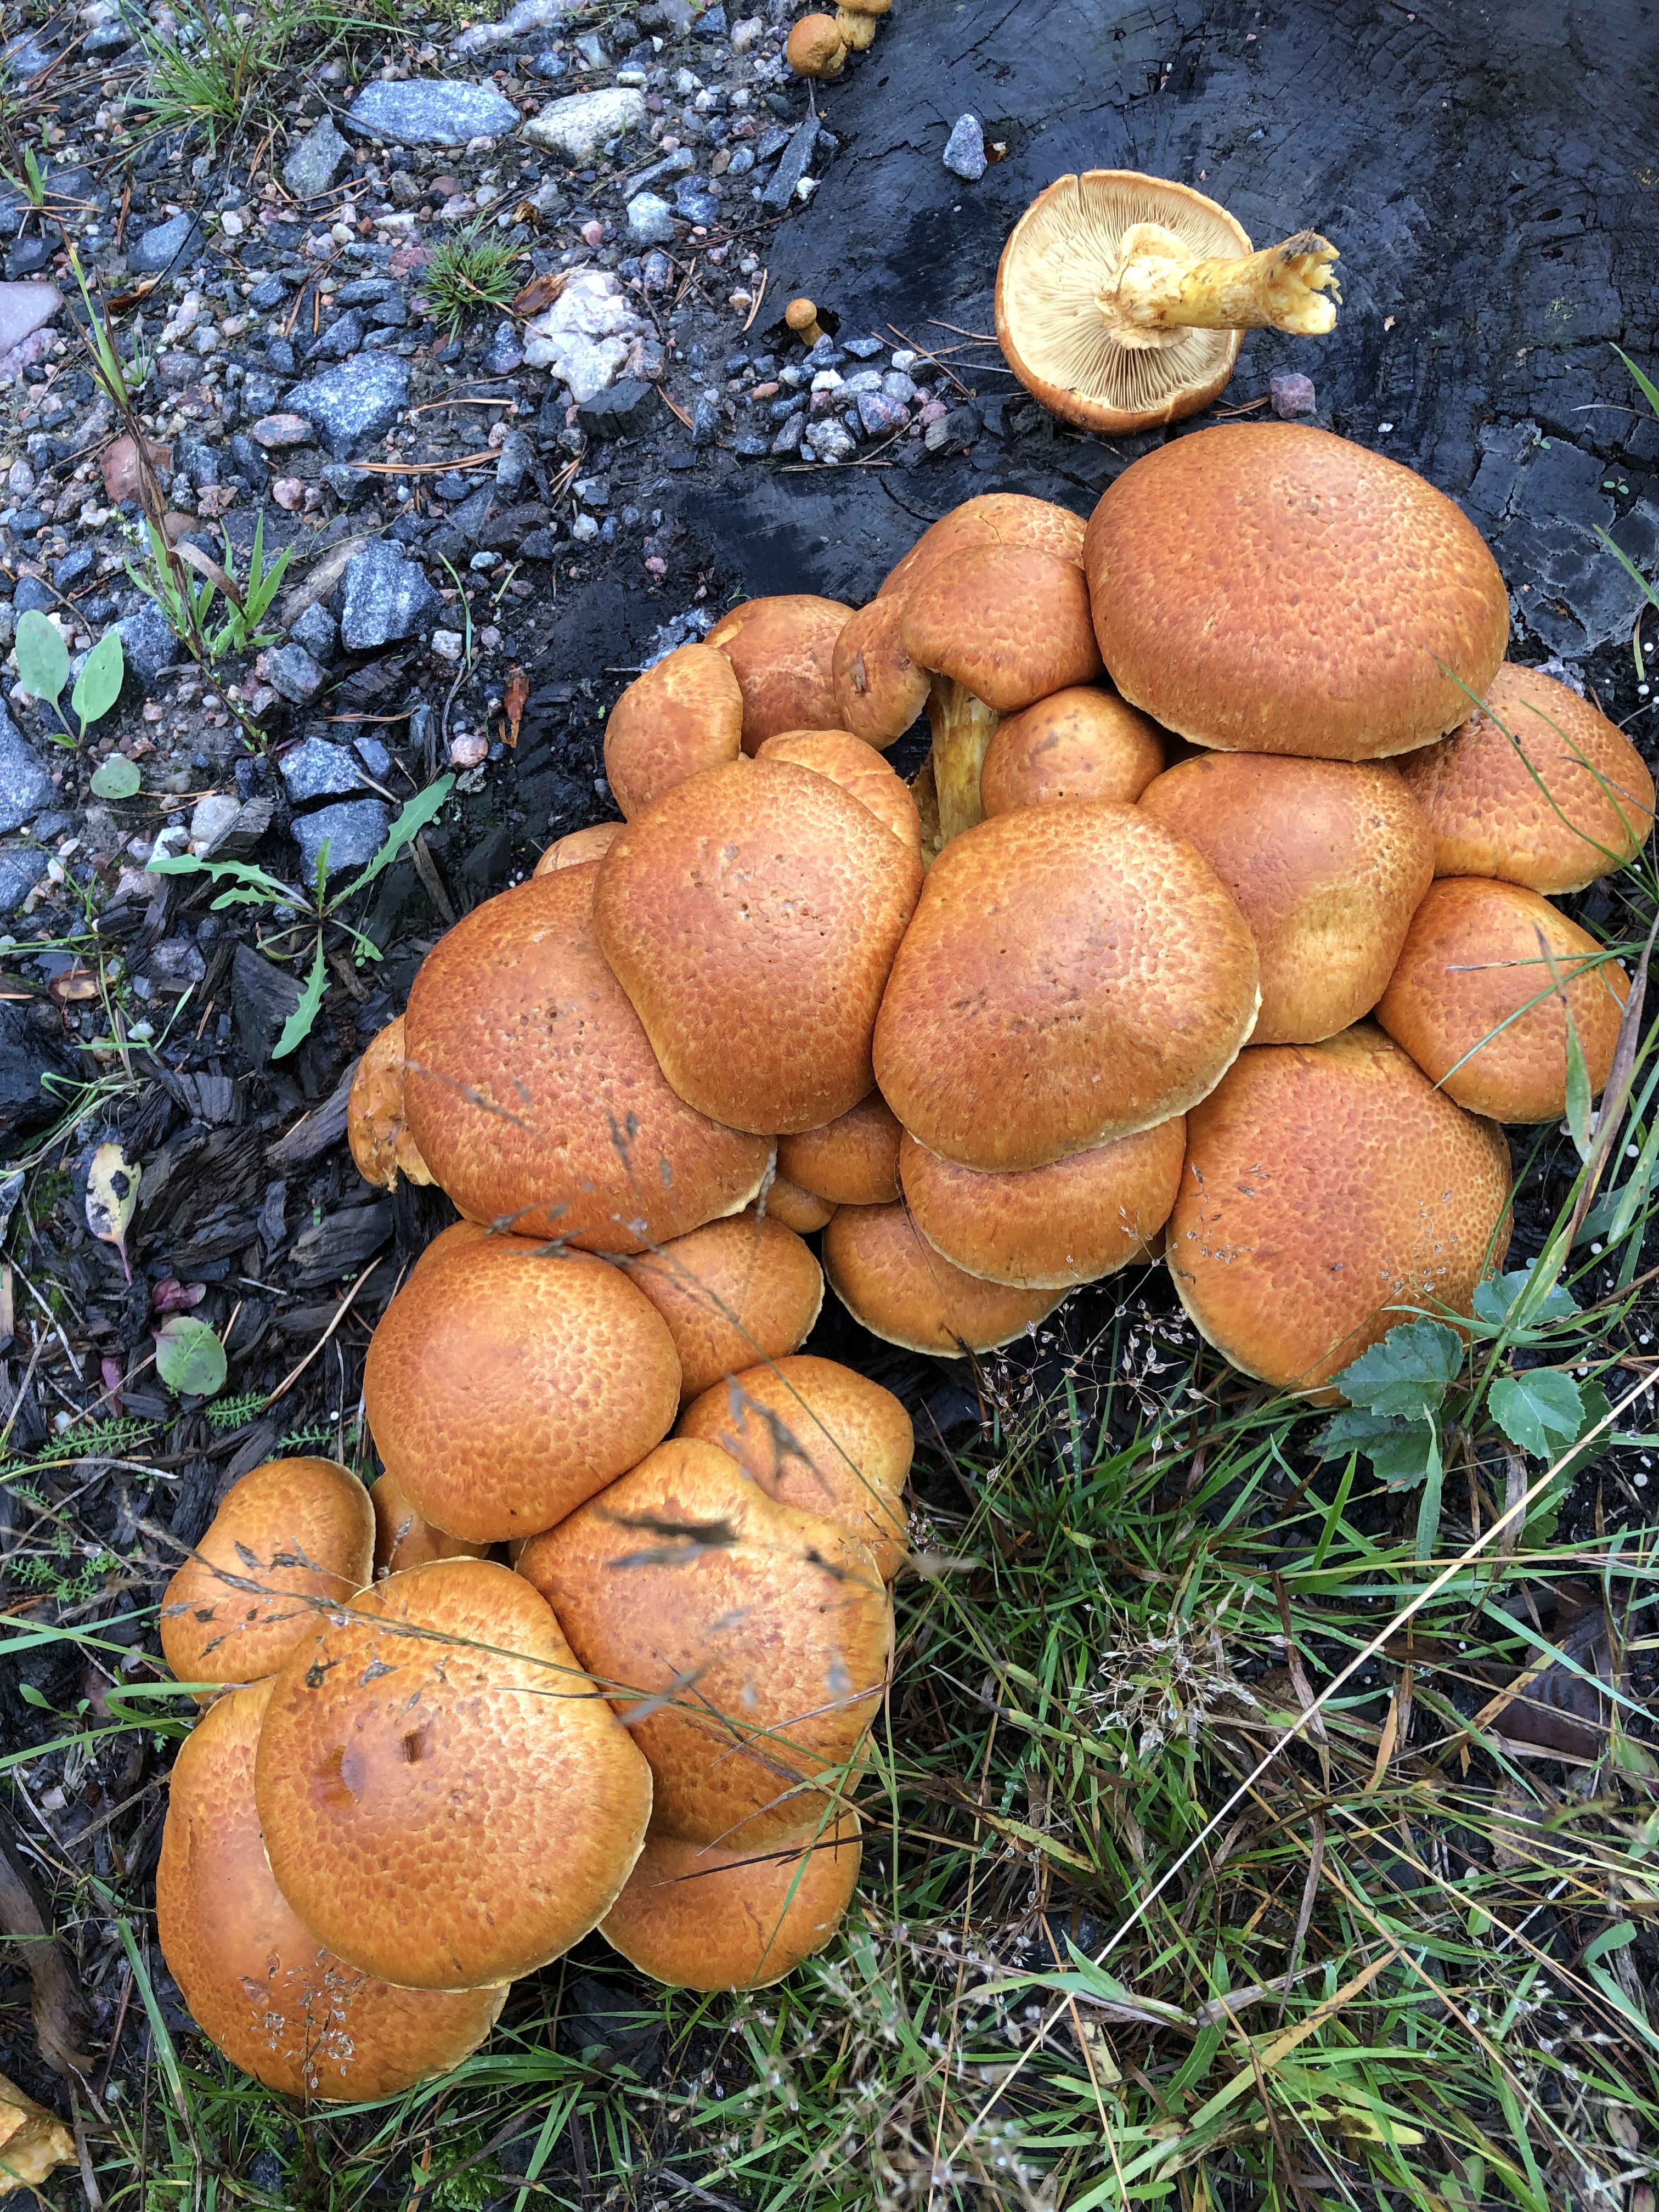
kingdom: Fungi
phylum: Basidiomycota
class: Agaricomycetes
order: Agaricales
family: Hymenogastraceae
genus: Gymnopilus
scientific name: Gymnopilus junonius
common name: Spectacular rustgill
